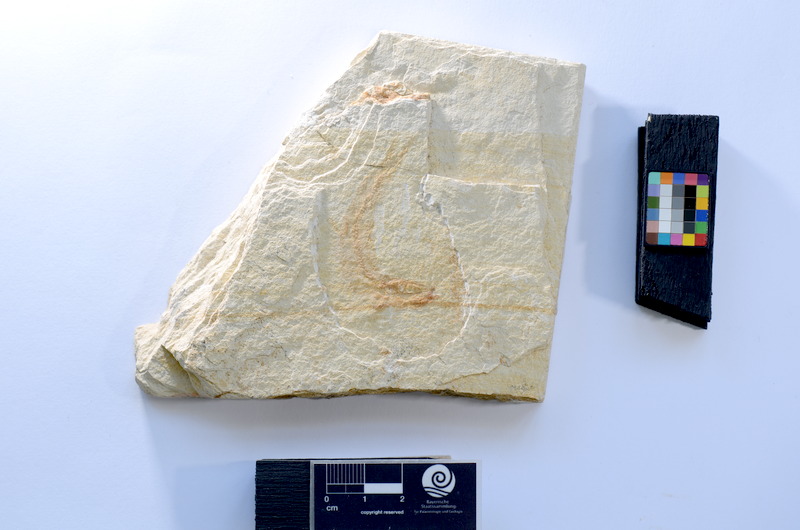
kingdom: Animalia
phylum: Chordata
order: Salmoniformes
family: Orthogonikleithridae
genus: Leptolepides
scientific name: Leptolepides
